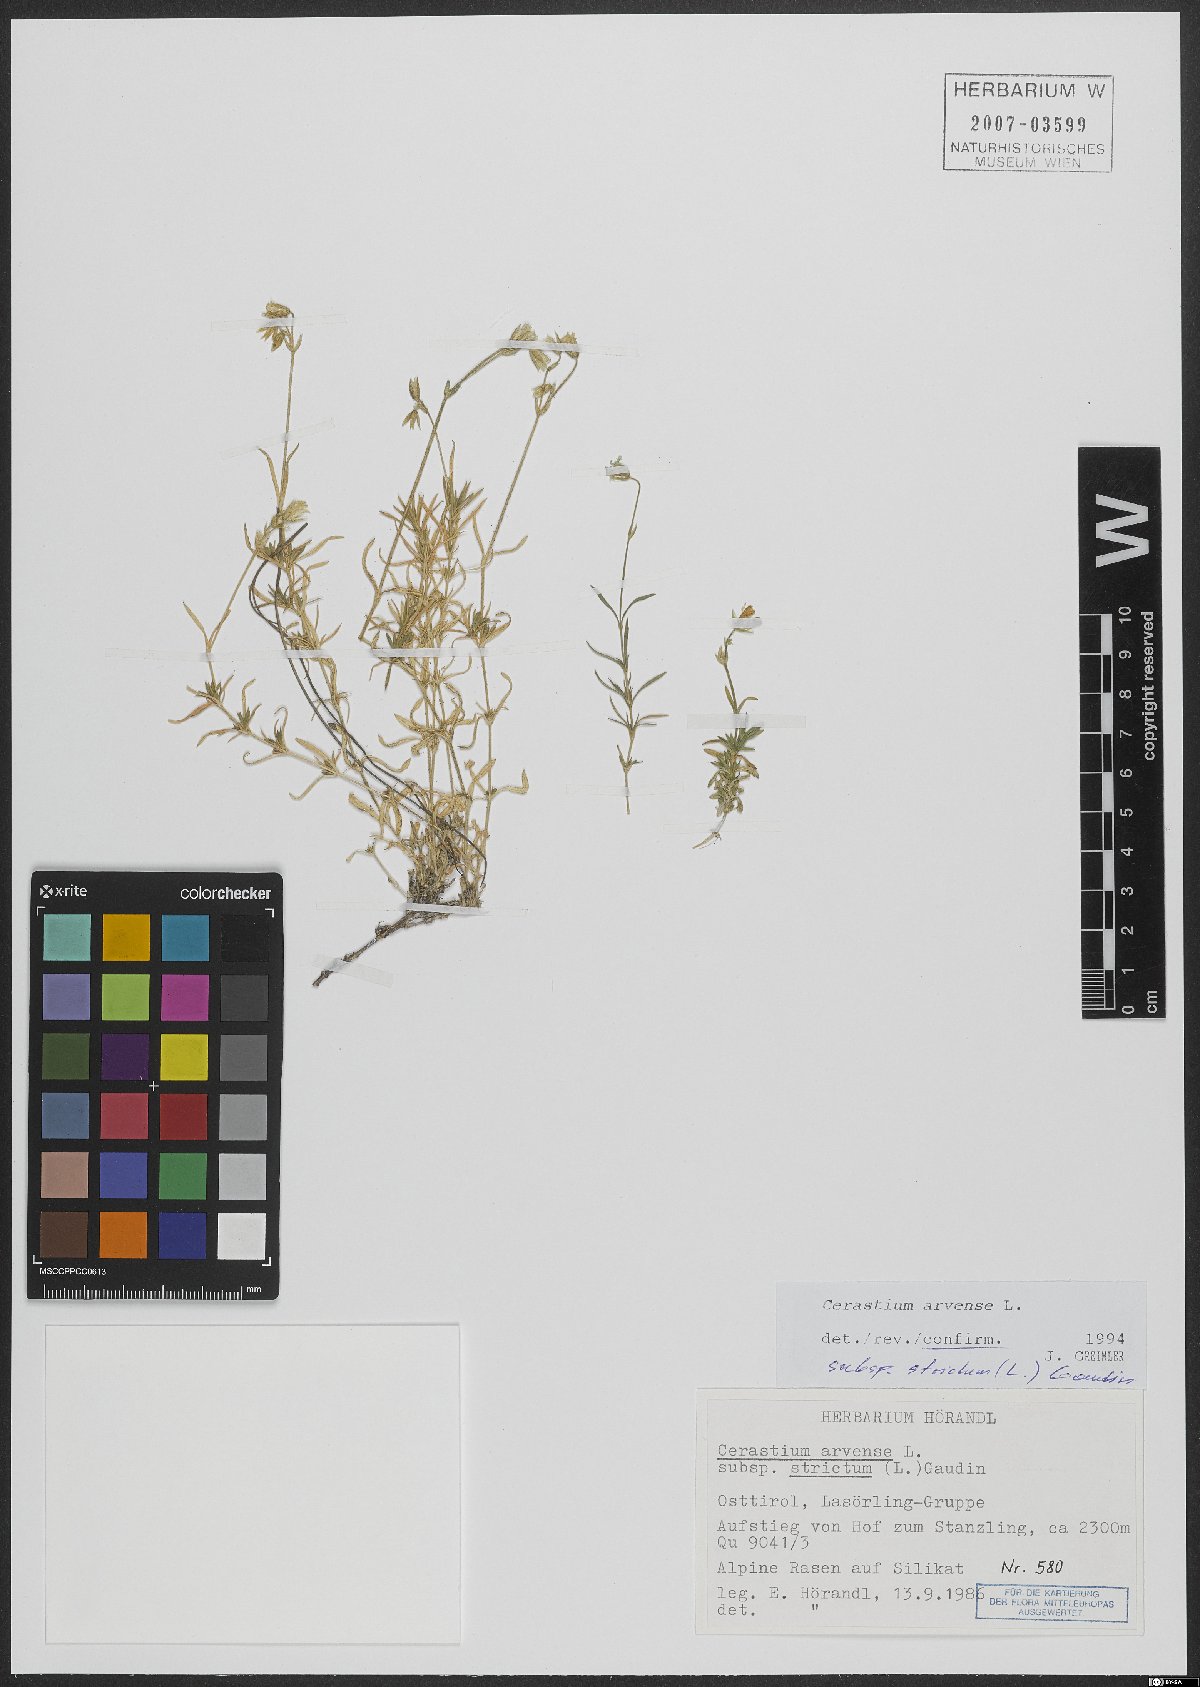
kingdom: Plantae
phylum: Tracheophyta
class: Magnoliopsida
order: Caryophyllales
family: Caryophyllaceae
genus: Cerastium
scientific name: Cerastium elongatum
